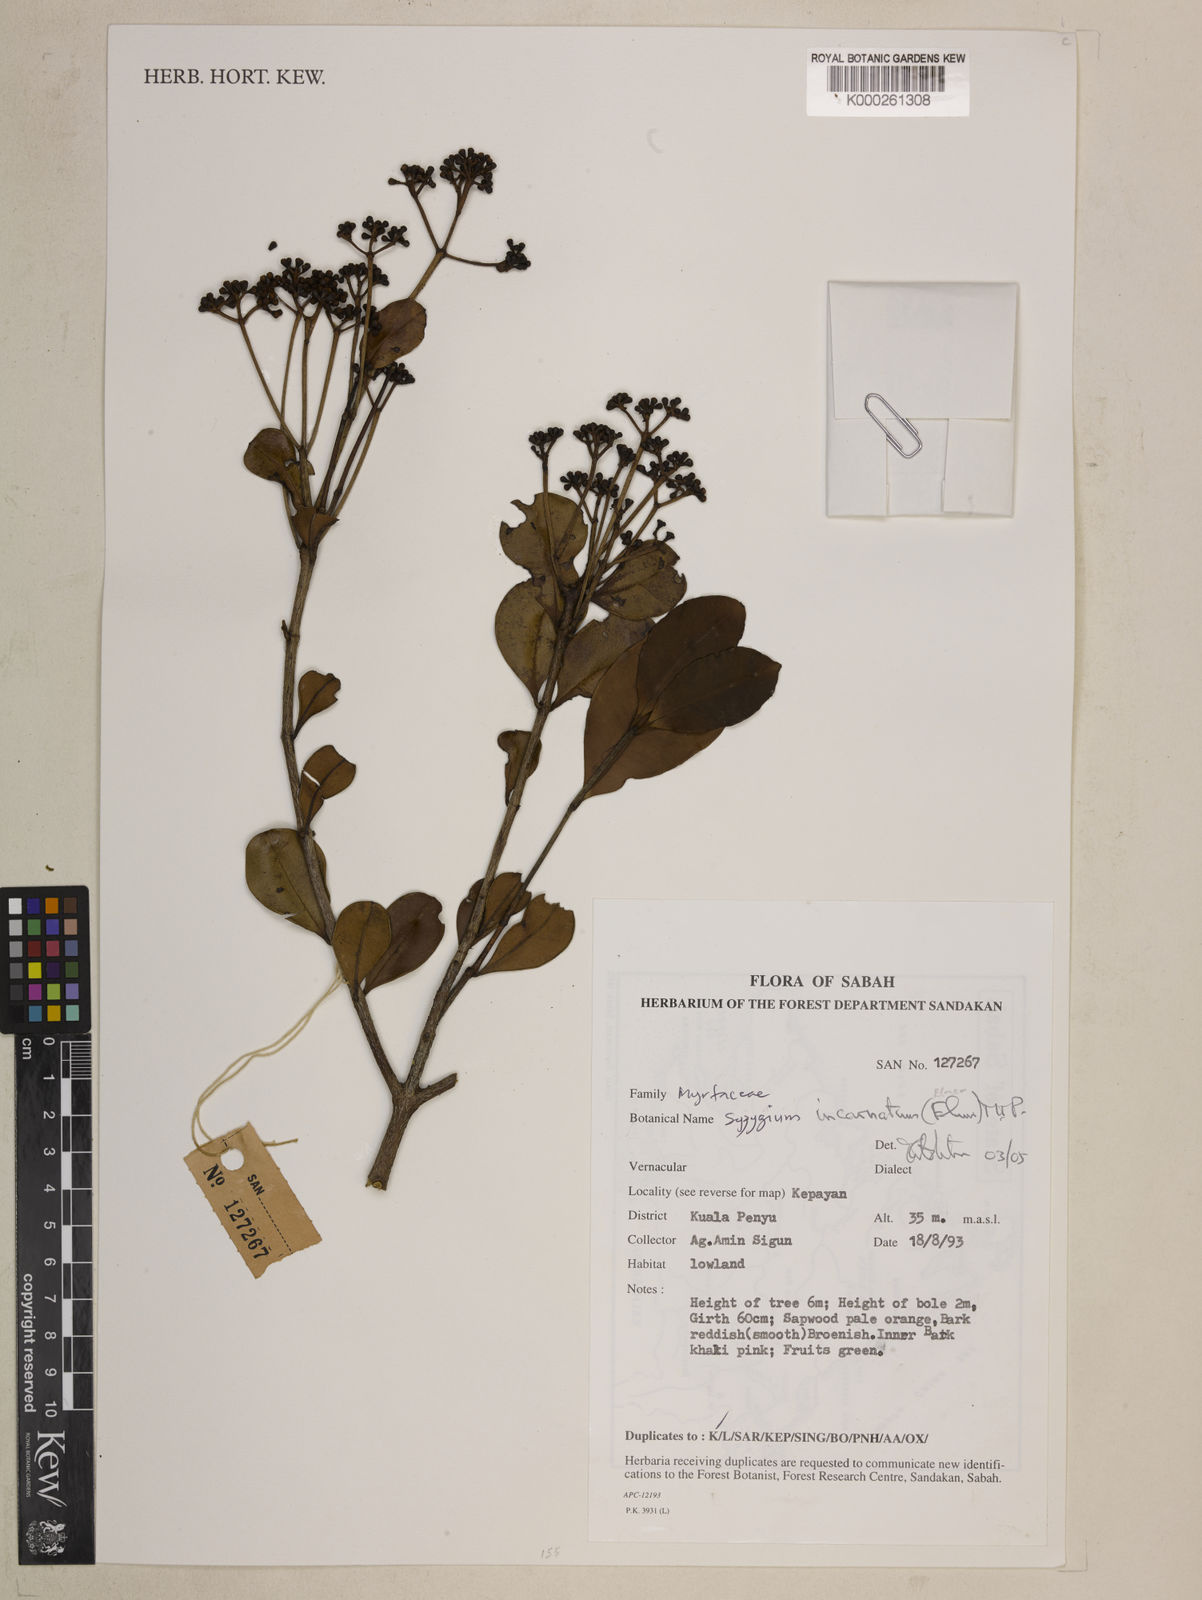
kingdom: Plantae
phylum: Tracheophyta
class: Magnoliopsida
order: Myrtales
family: Myrtaceae
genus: Syzygium
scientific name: Syzygium incarnatum
